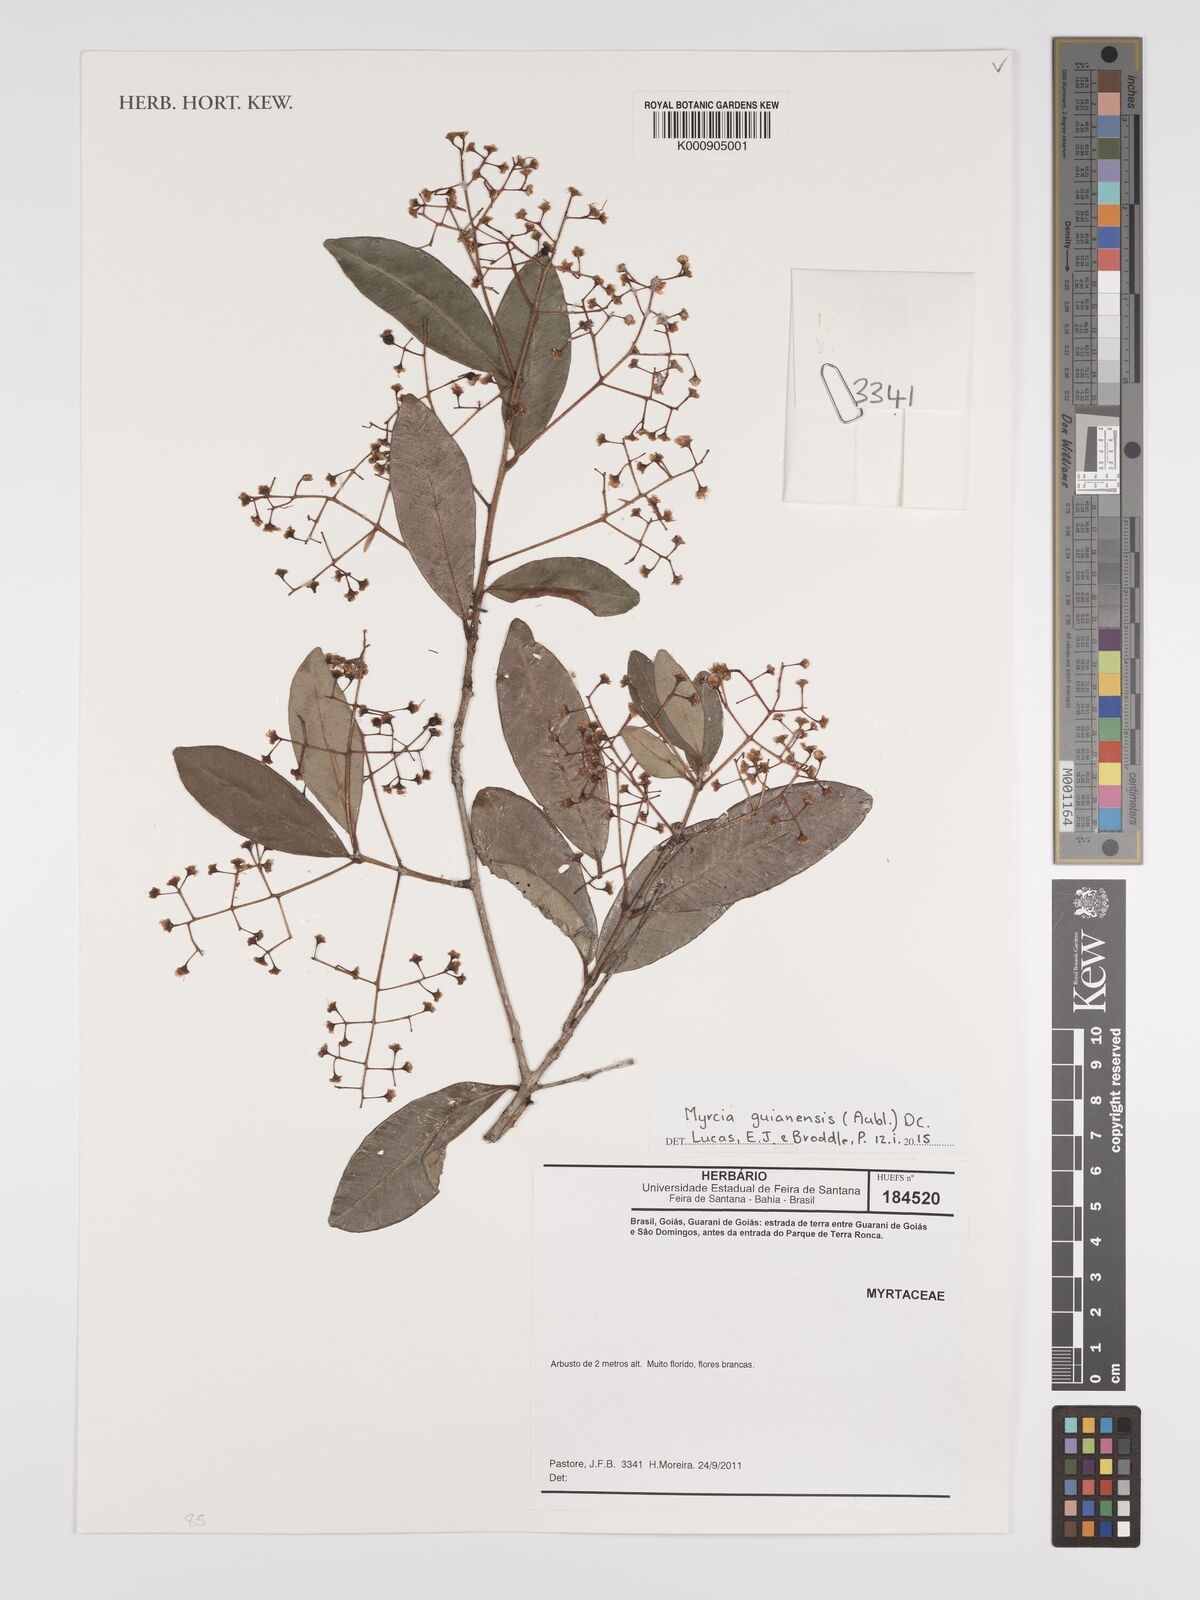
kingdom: Plantae
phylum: Tracheophyta
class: Magnoliopsida
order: Myrtales
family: Myrtaceae
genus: Myrcia
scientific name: Myrcia guianensis
